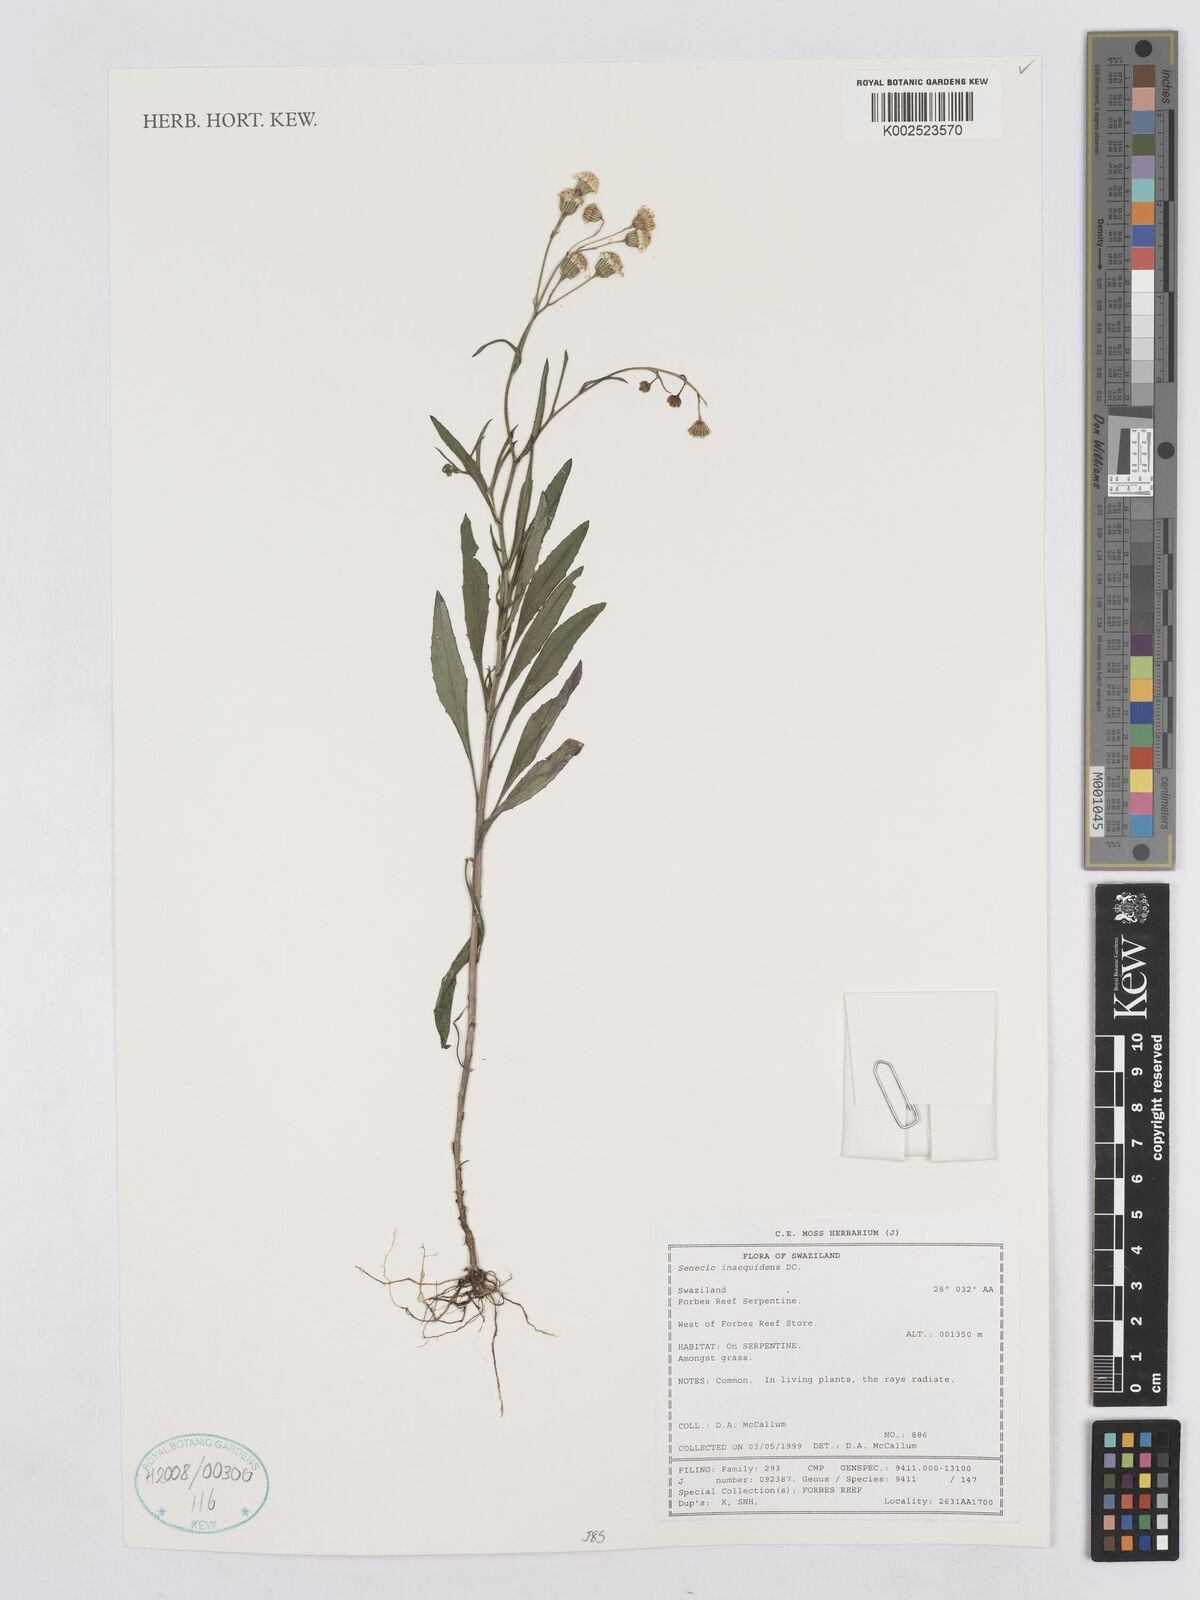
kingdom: Plantae
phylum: Tracheophyta
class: Magnoliopsida
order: Asterales
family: Asteraceae
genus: Senecio
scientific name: Senecio inaequidens
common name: Narrow-leaved ragwort
